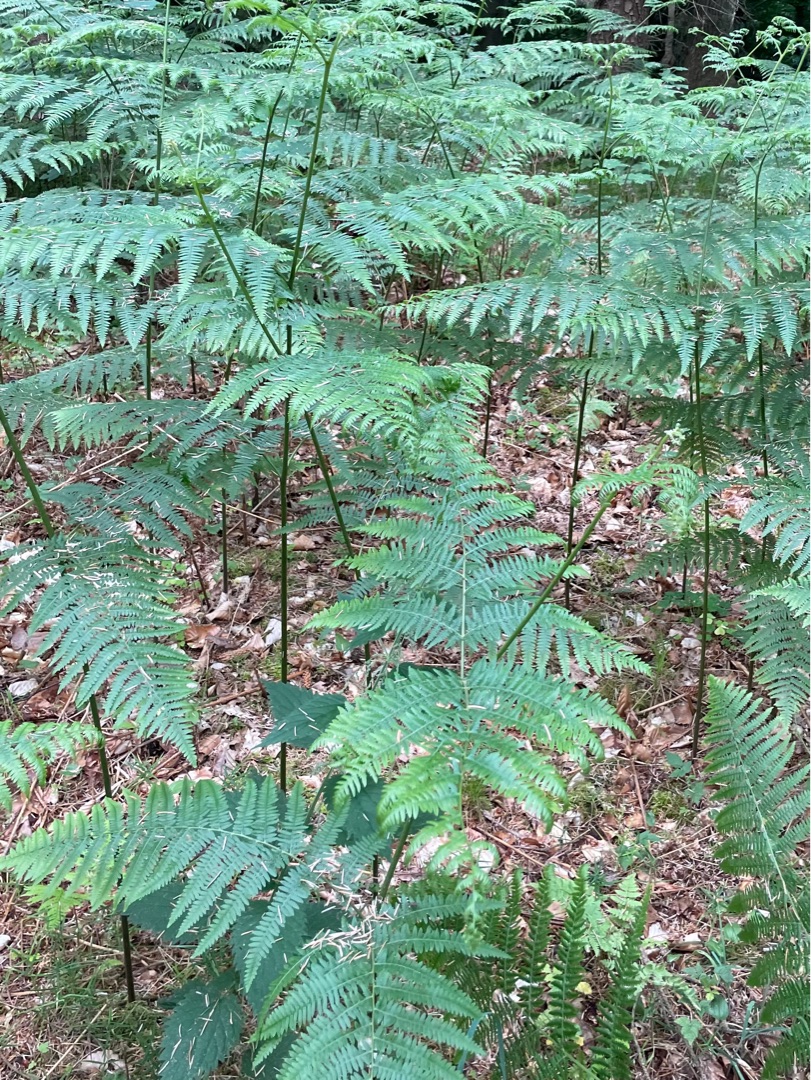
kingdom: Plantae
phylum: Tracheophyta
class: Polypodiopsida
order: Polypodiales
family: Dennstaedtiaceae
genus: Pteridium
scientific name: Pteridium aquilinum
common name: Ørnebregne
